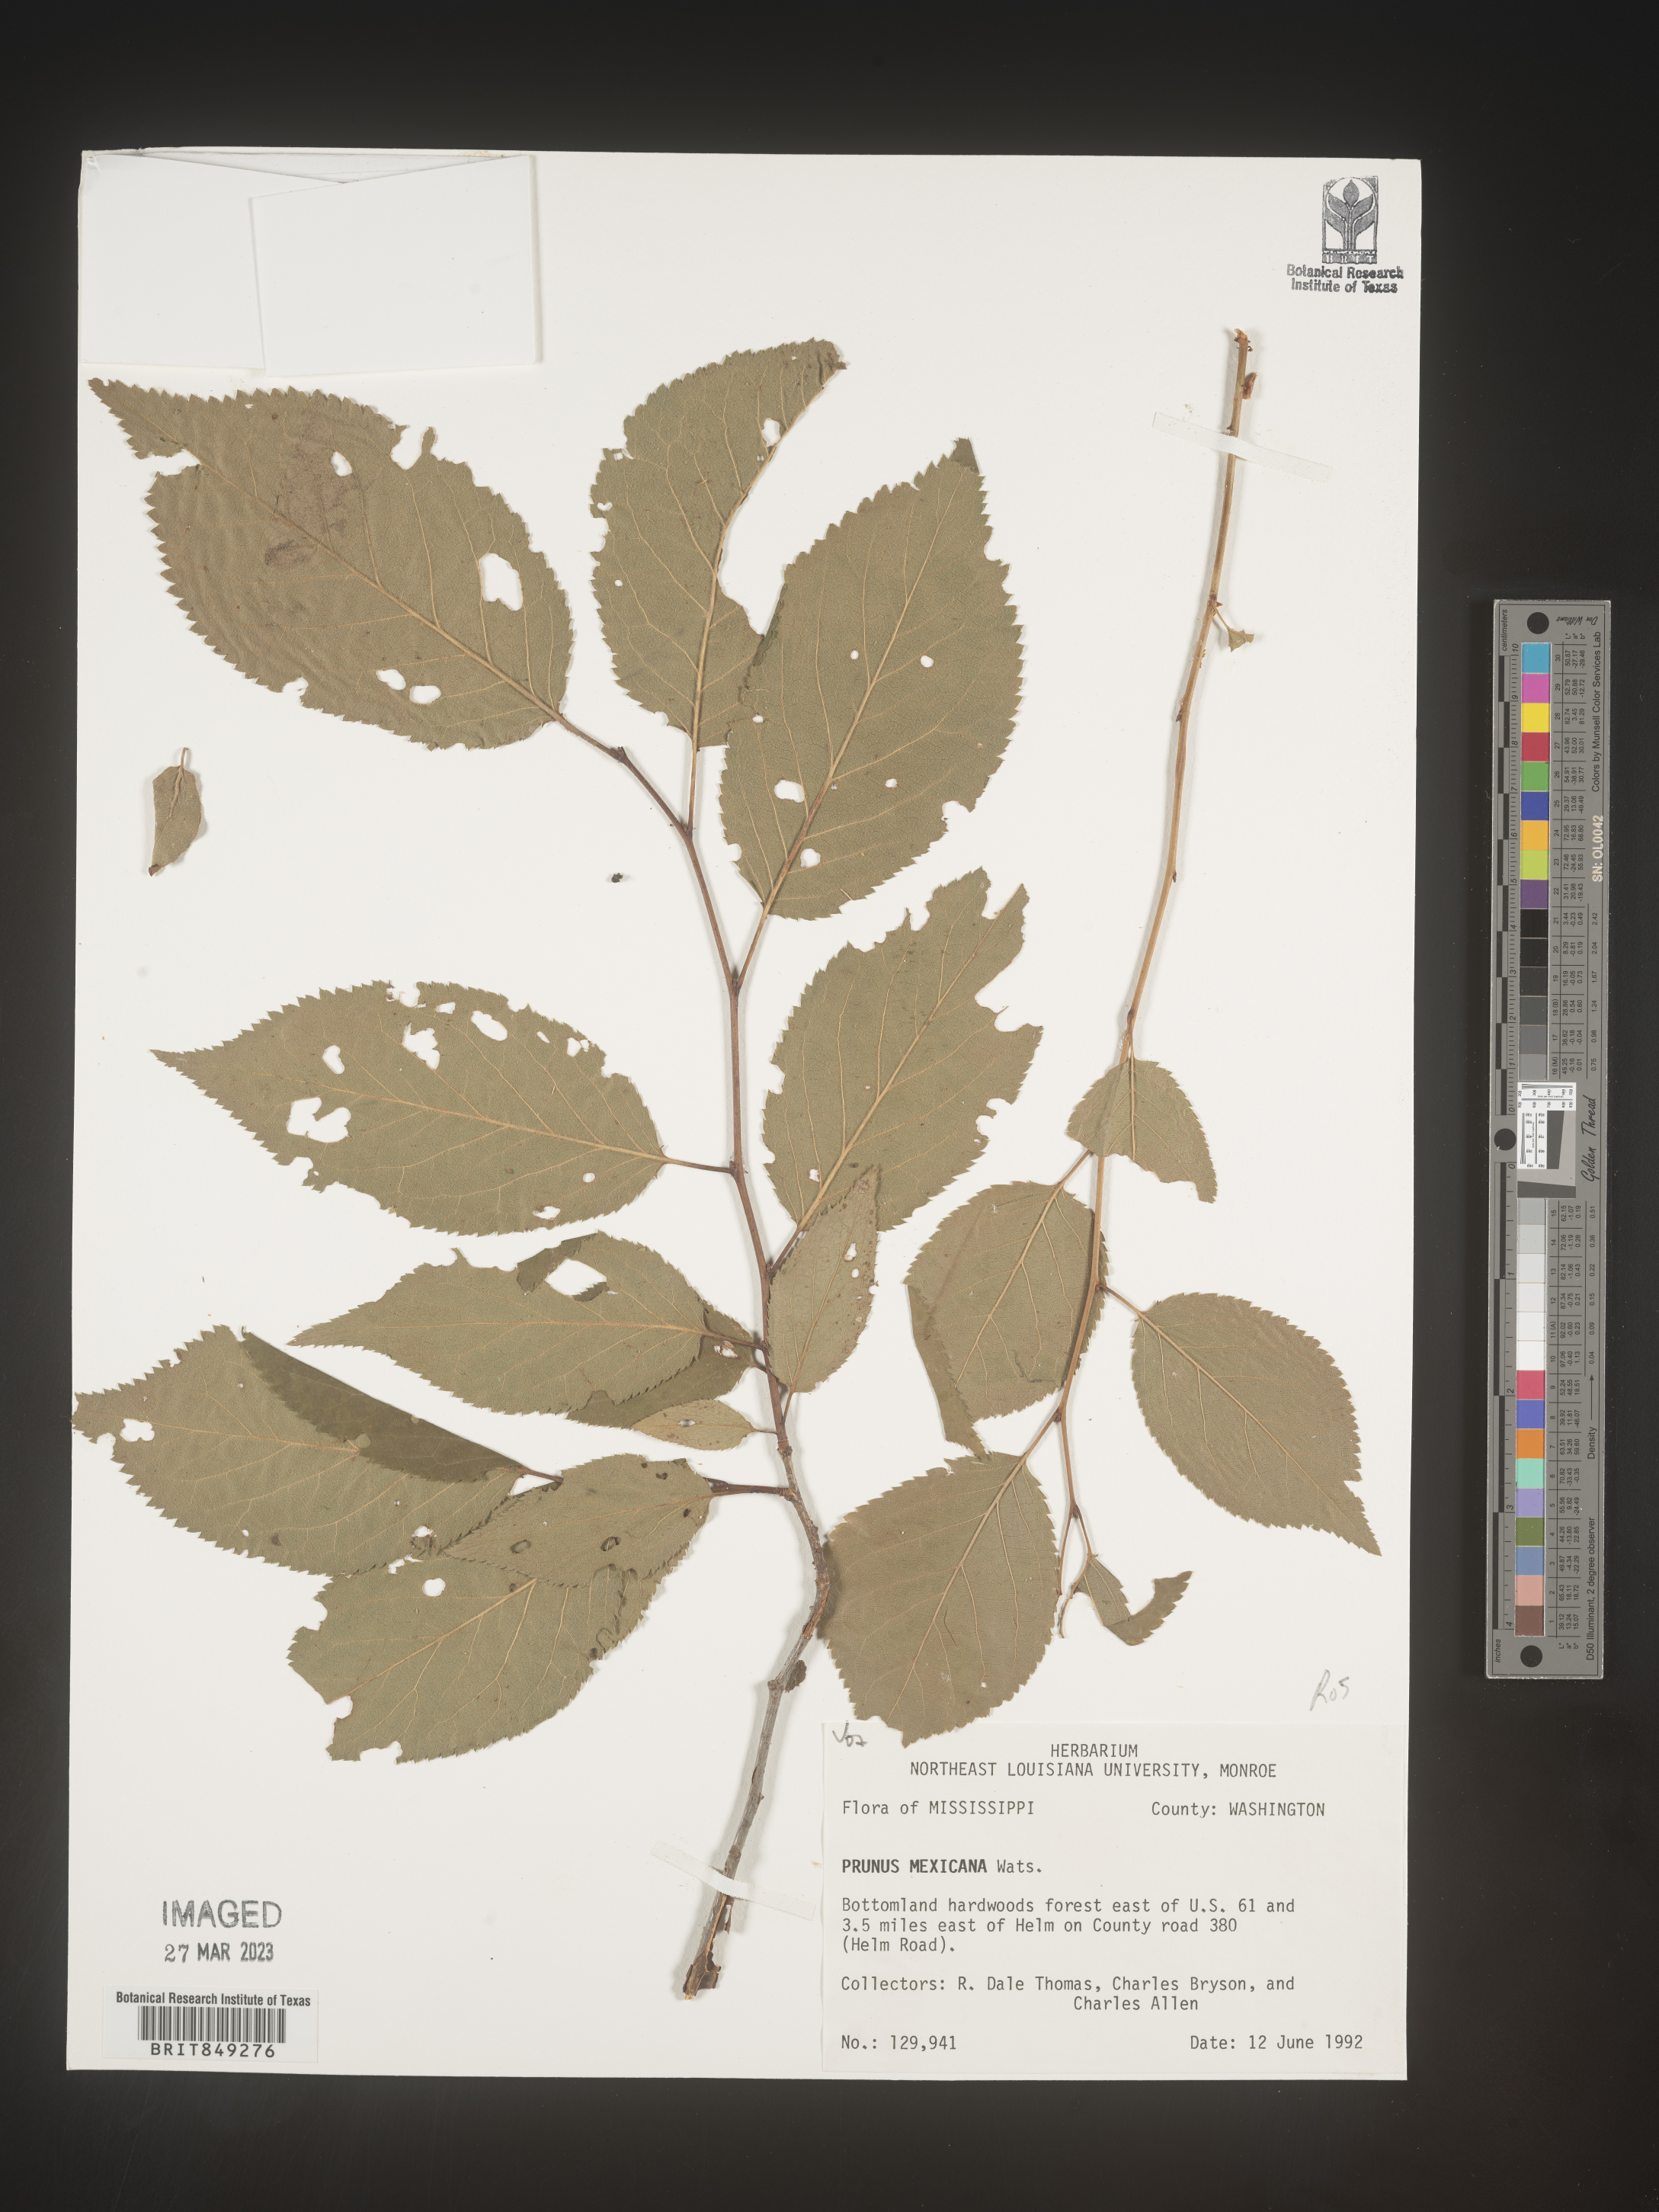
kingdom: Plantae
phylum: Tracheophyta
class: Magnoliopsida
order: Rosales
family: Rosaceae
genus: Prunus
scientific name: Prunus
